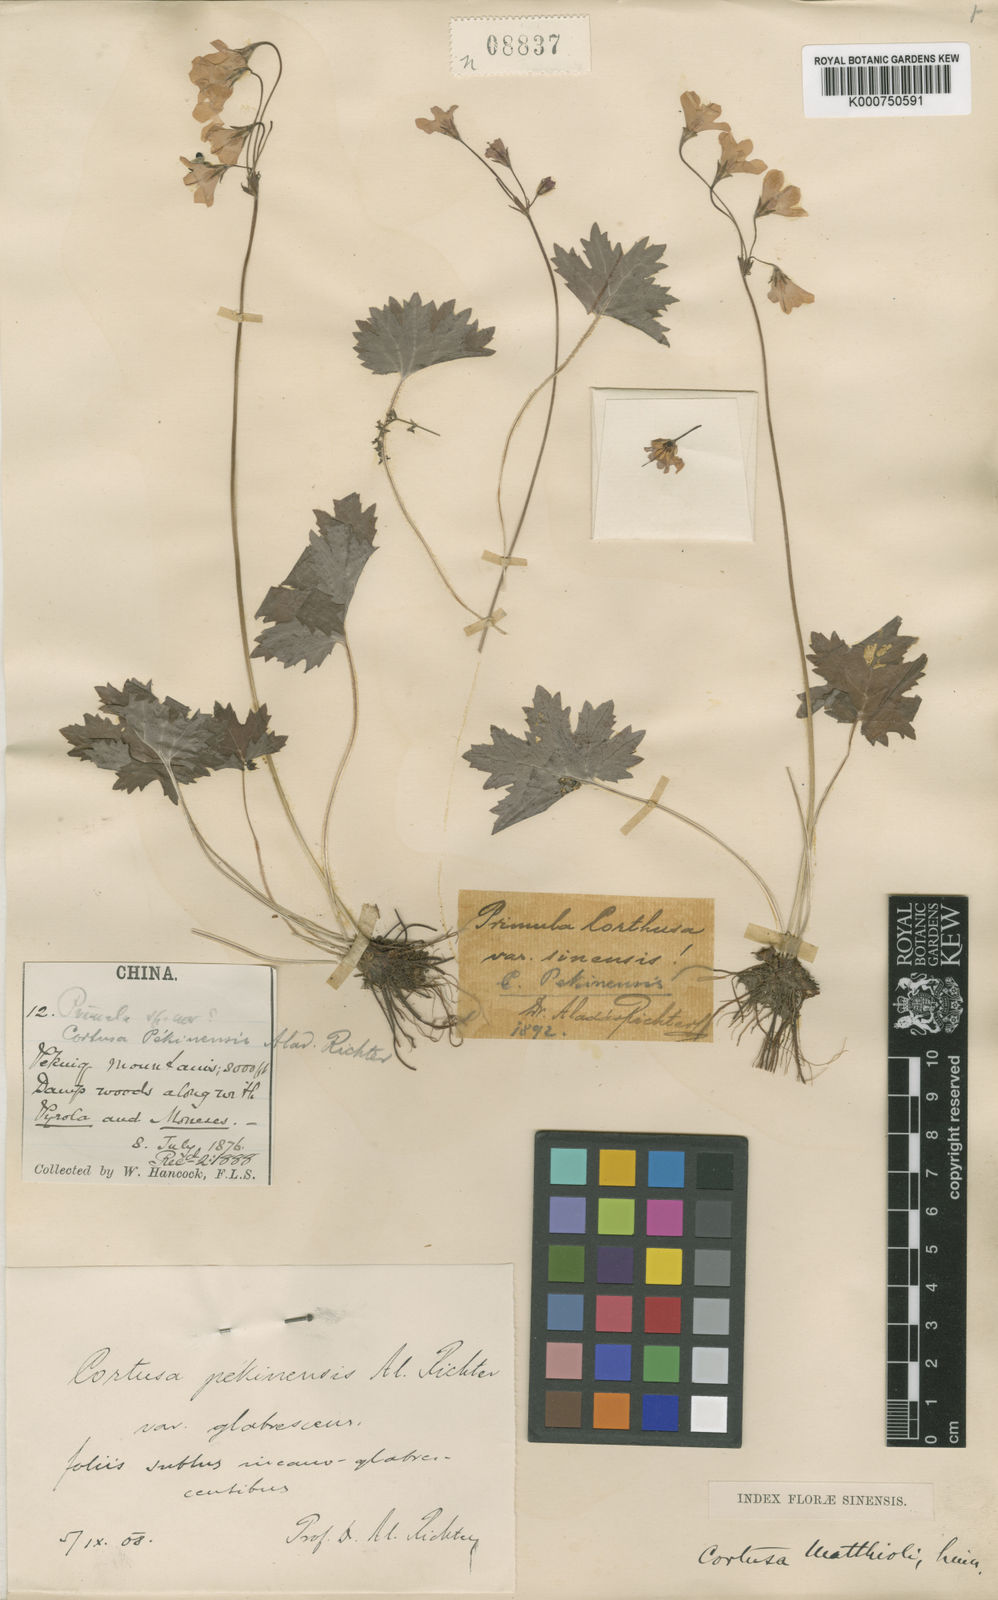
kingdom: Plantae
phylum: Tracheophyta
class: Magnoliopsida
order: Ericales
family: Primulaceae
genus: Primula
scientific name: Primula matthioli
